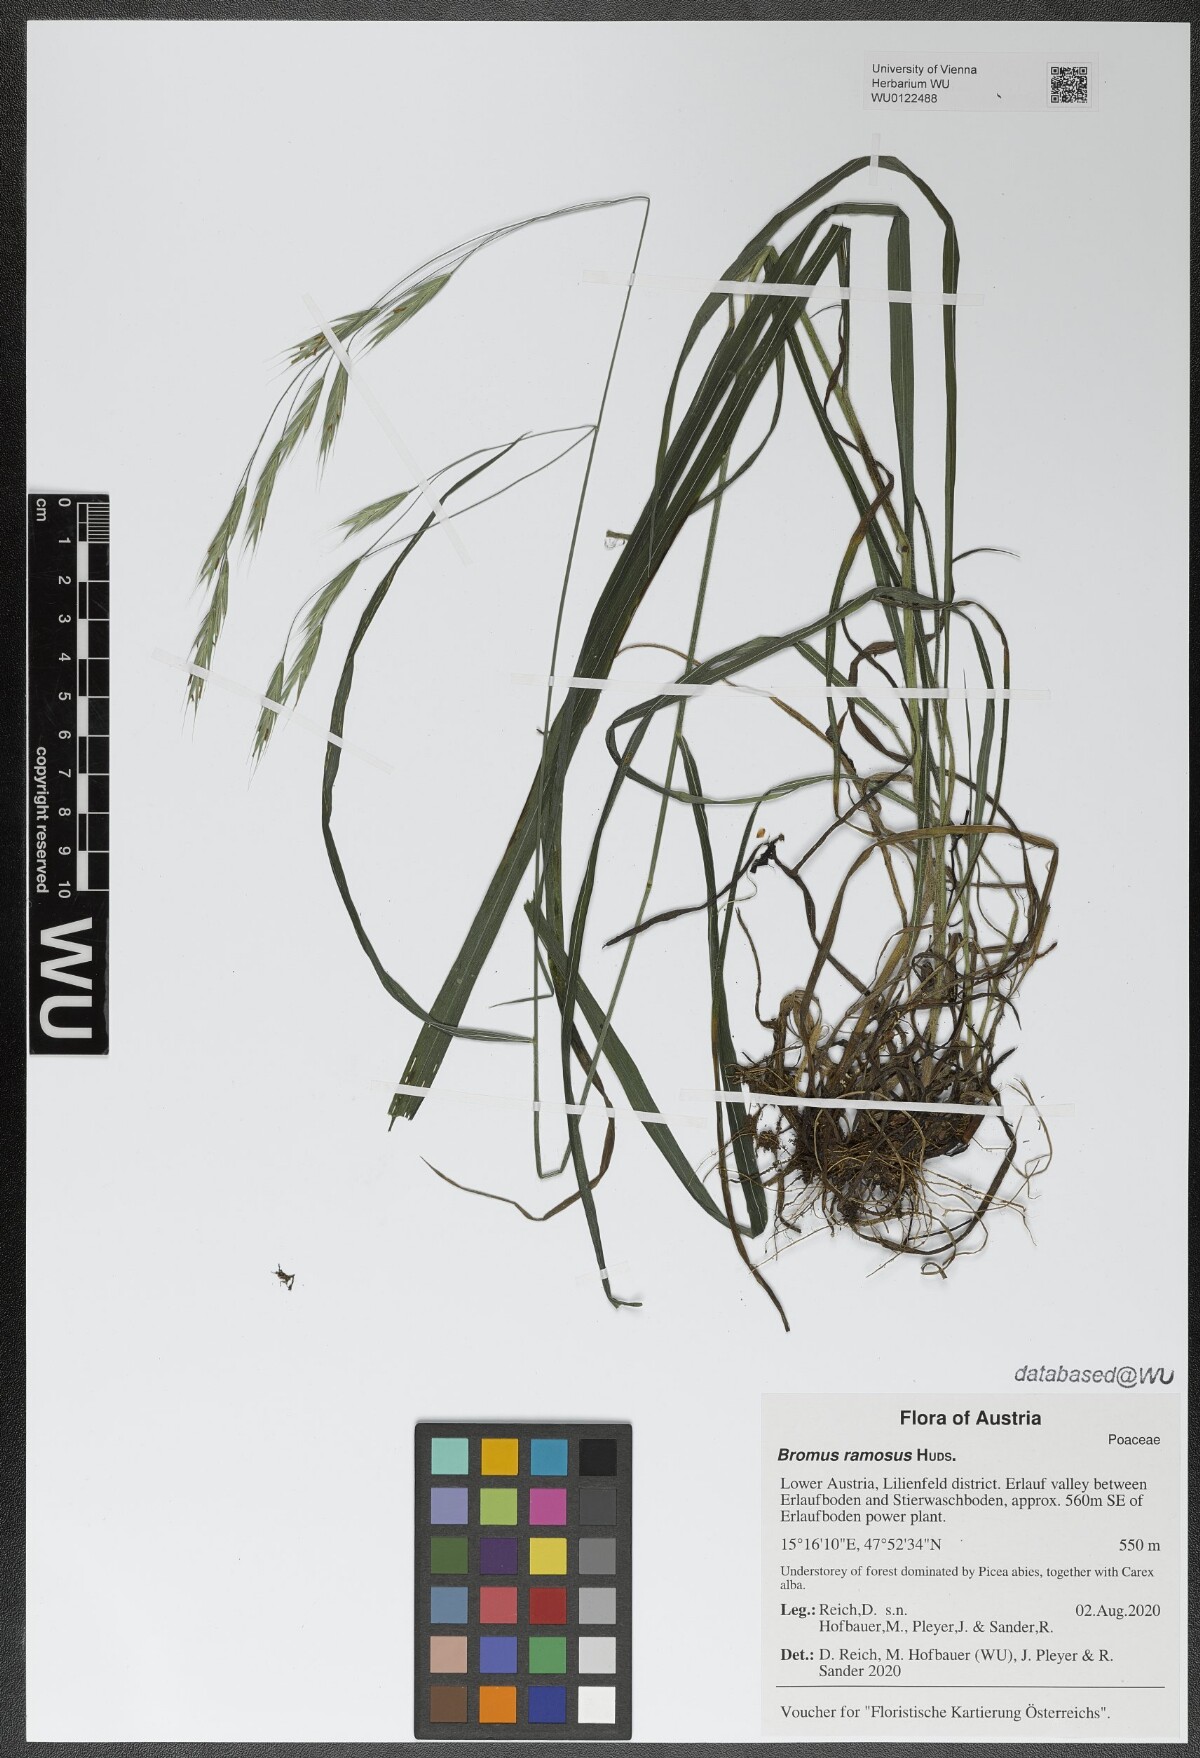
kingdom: Plantae
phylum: Tracheophyta
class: Liliopsida
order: Poales
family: Poaceae
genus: Bromus
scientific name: Bromus ramosus
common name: Hairy brome
